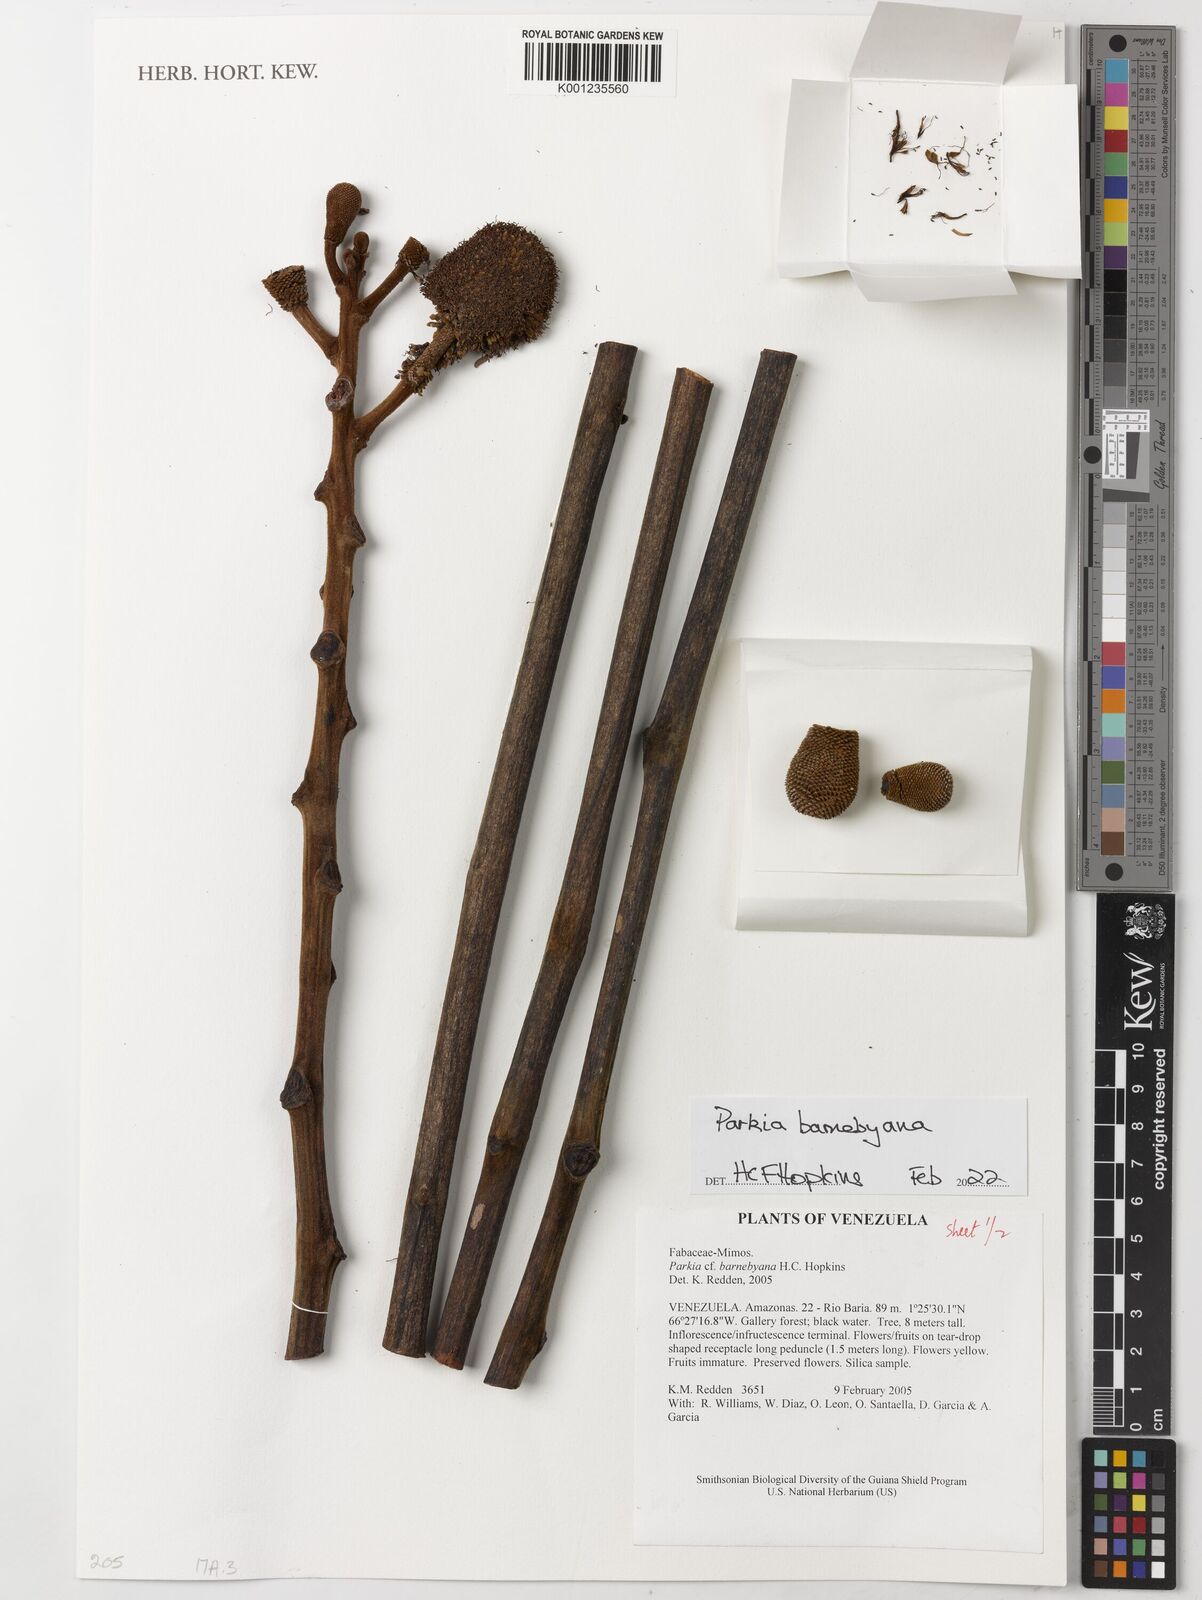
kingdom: Plantae
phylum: Tracheophyta
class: Magnoliopsida
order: Fabales
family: Fabaceae
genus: Parkia
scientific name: Parkia barnebyana
